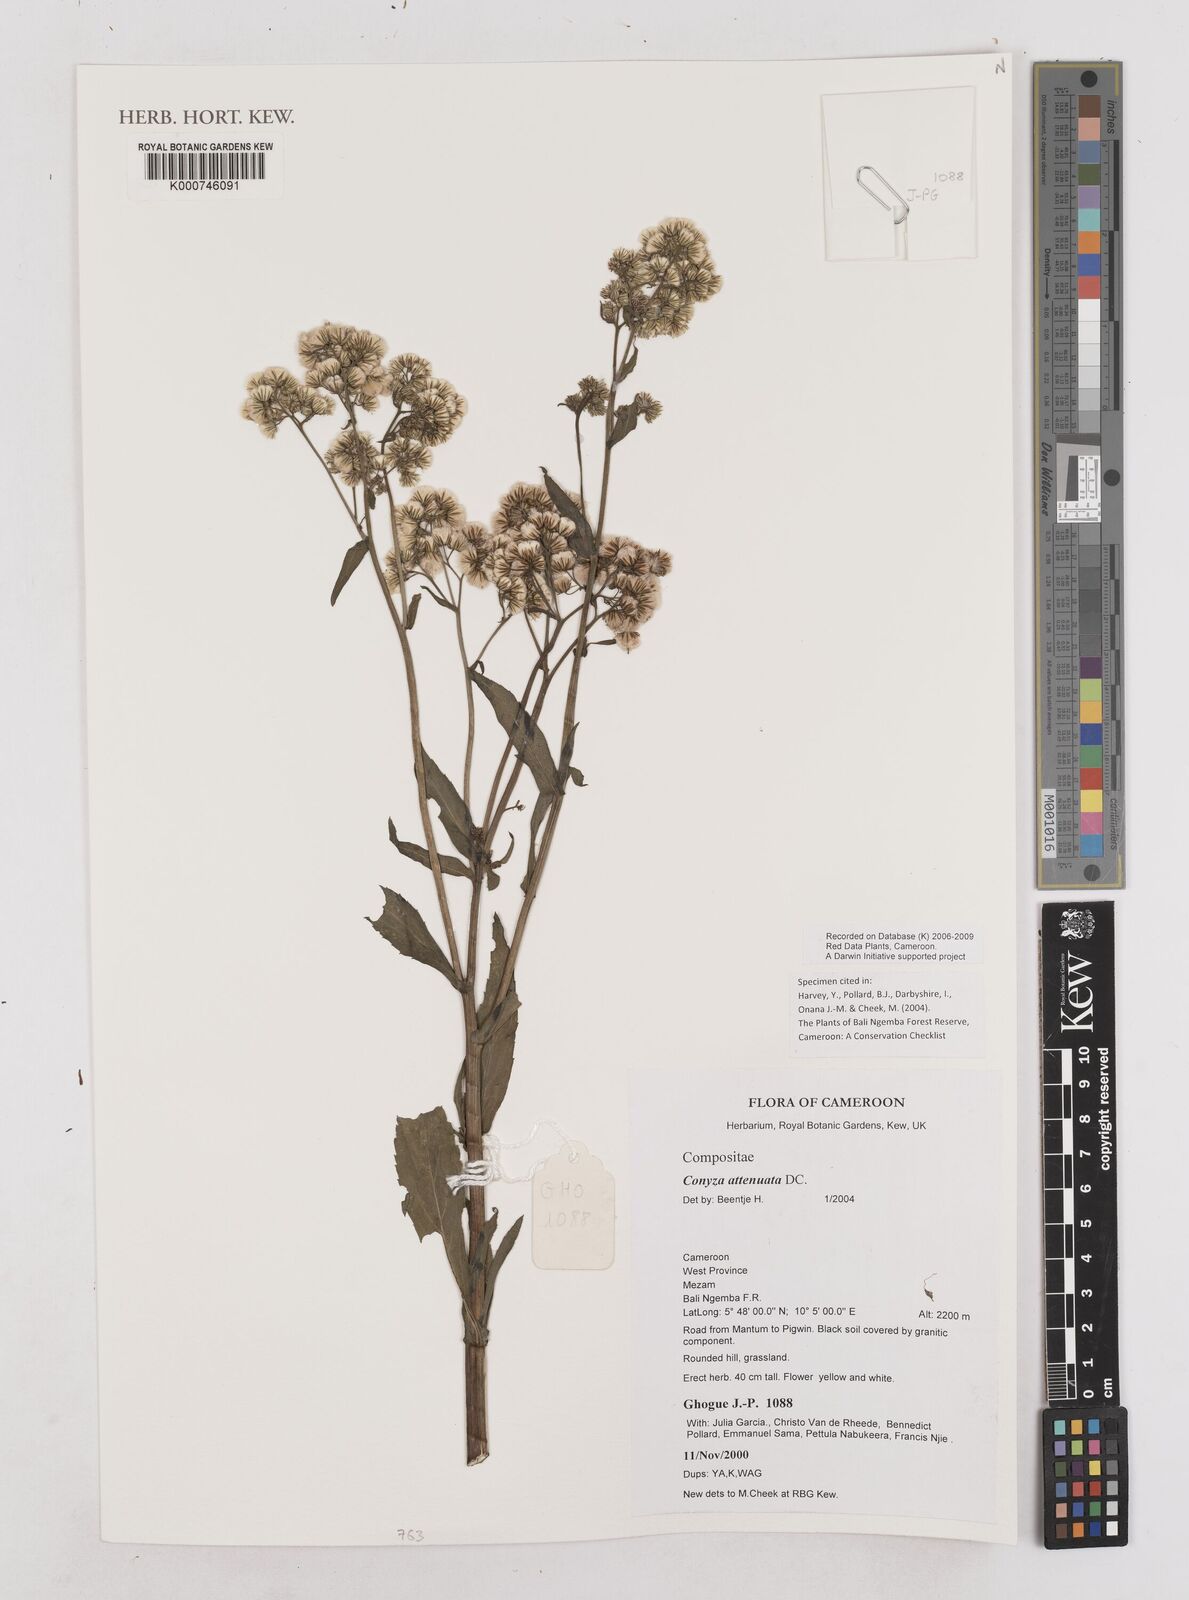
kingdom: Plantae
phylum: Tracheophyta
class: Magnoliopsida
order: Asterales
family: Asteraceae
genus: Nidorella
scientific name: Nidorella attenuata
